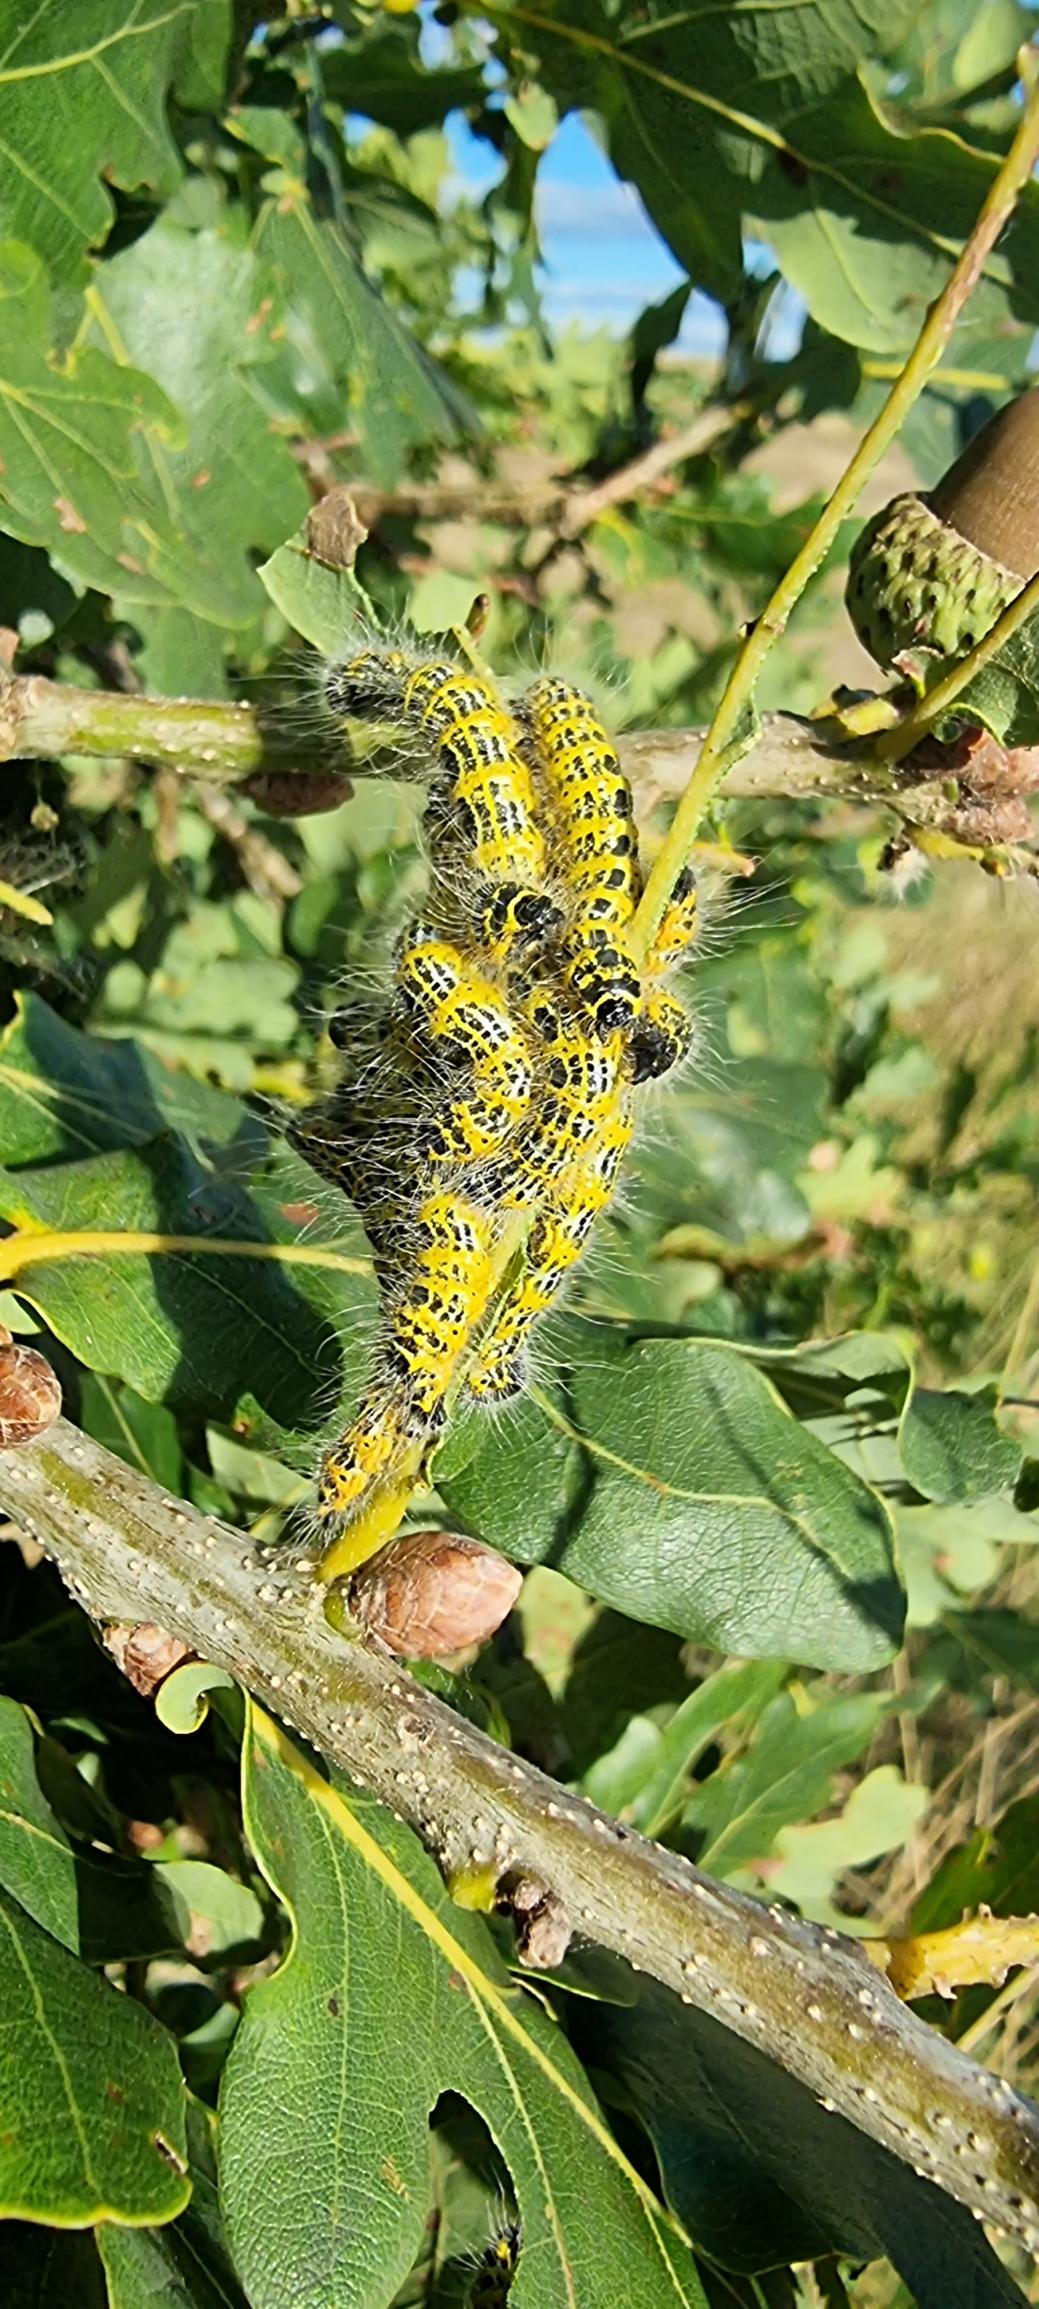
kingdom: Animalia
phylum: Arthropoda
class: Insecta
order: Lepidoptera
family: Notodontidae
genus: Phalera
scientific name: Phalera bucephala
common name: Måneplet
